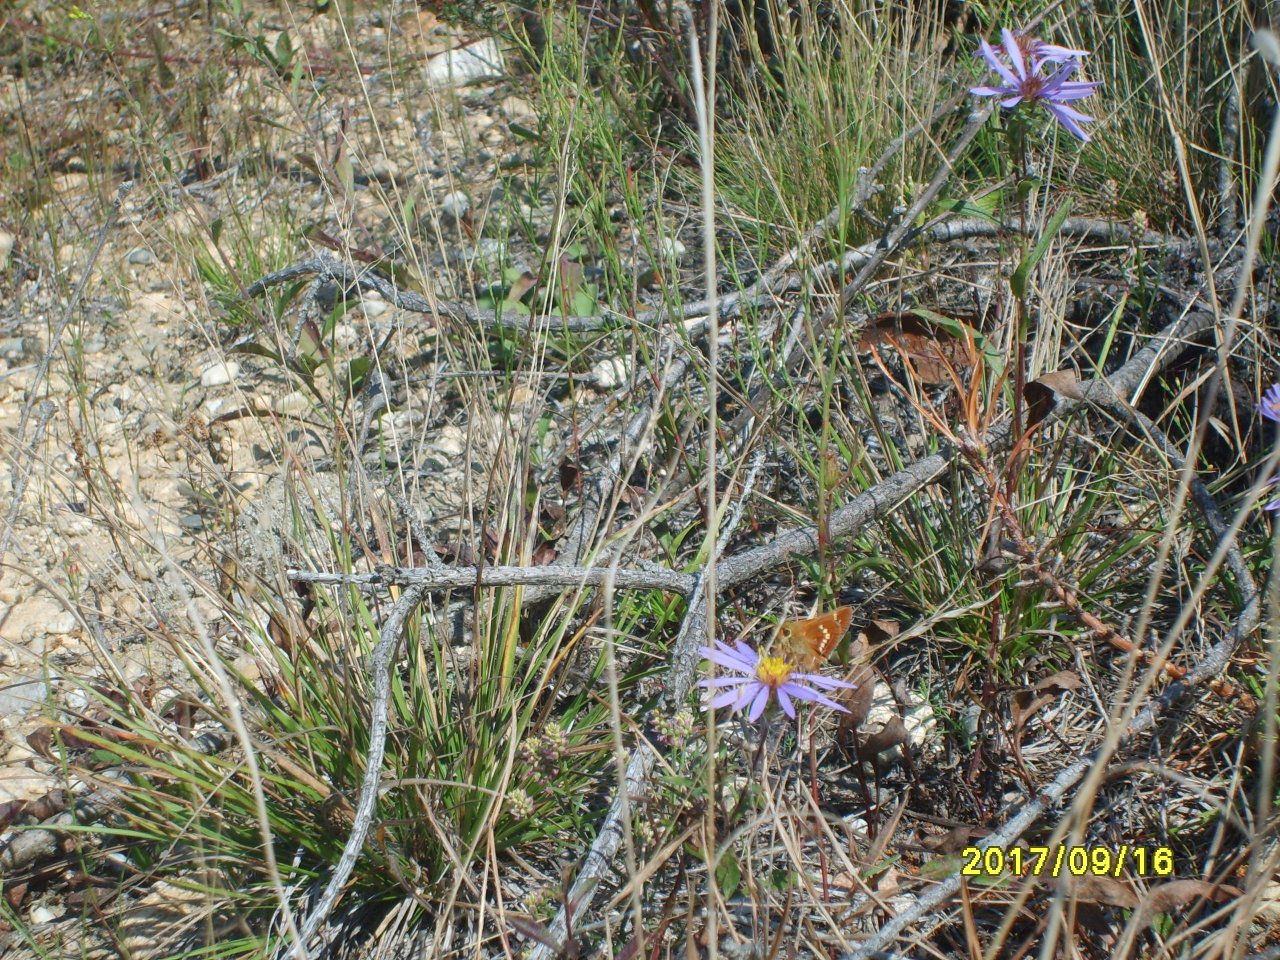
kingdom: Animalia
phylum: Arthropoda
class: Insecta
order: Lepidoptera
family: Hesperiidae
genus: Hesperia
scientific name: Hesperia leonardus
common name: Leonard's Skipper
